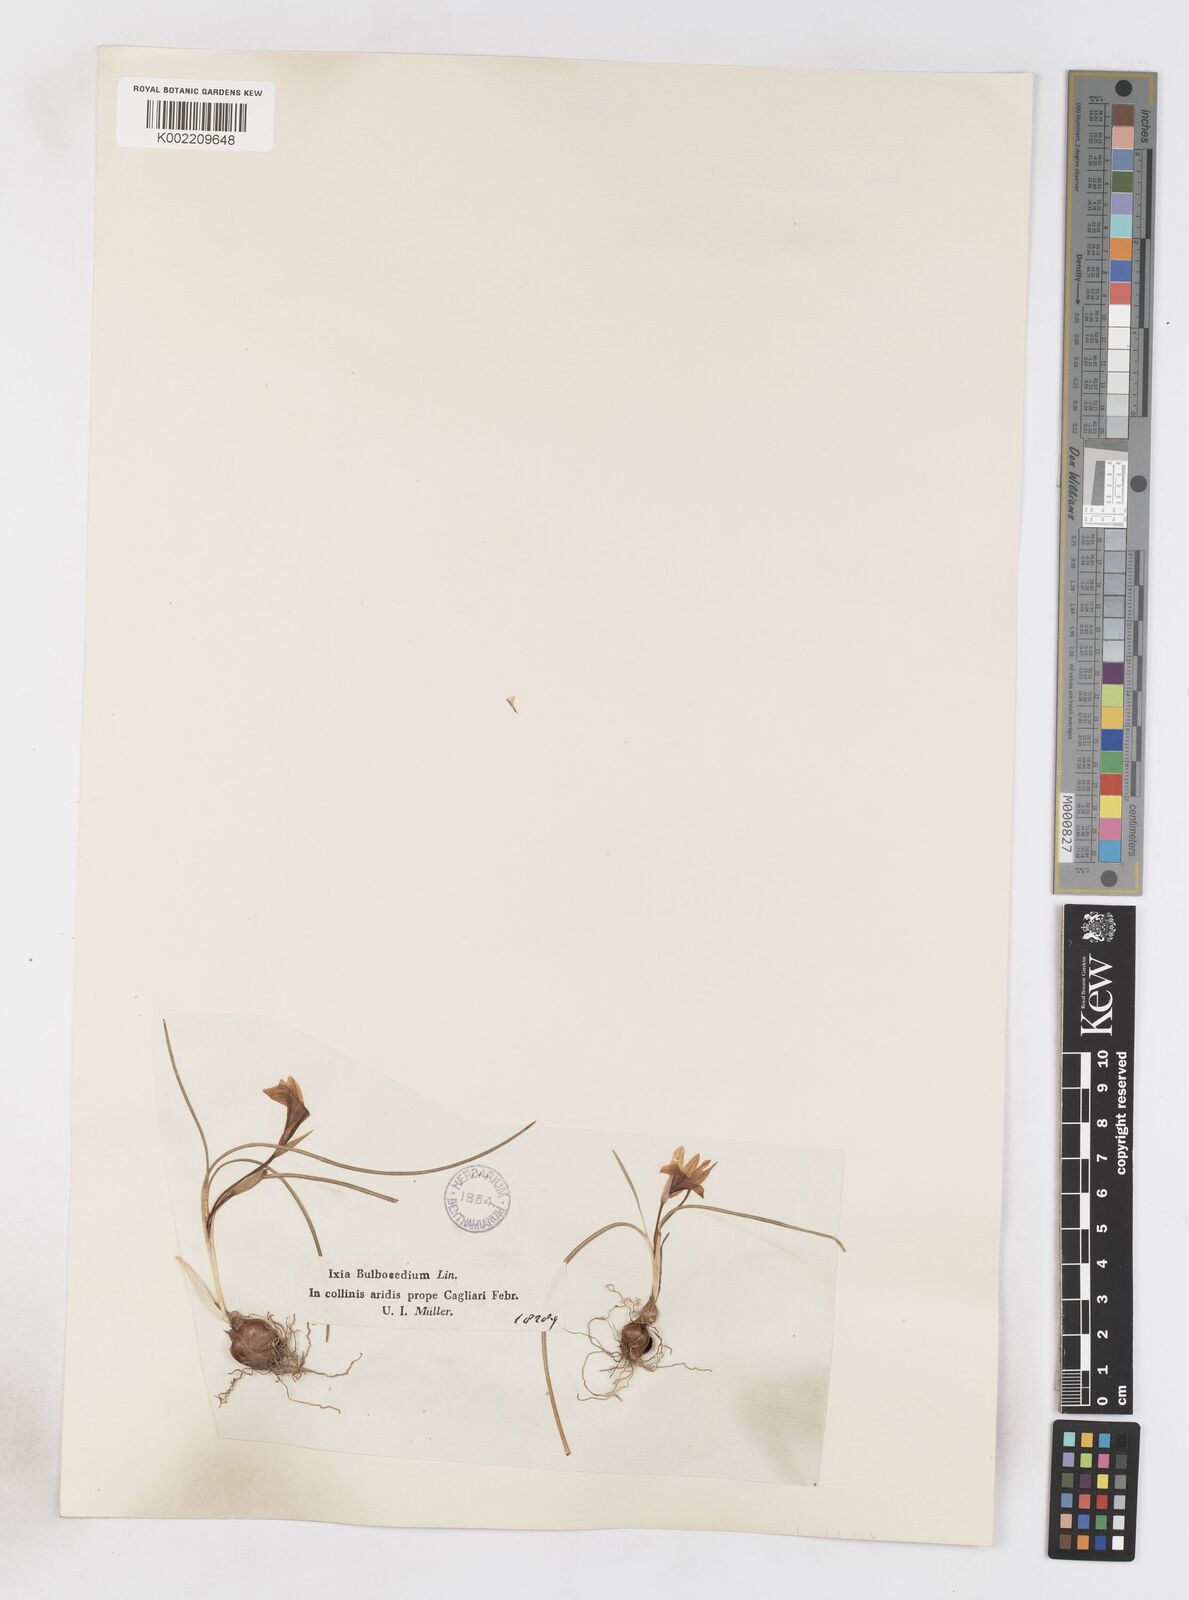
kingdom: Plantae
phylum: Tracheophyta
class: Liliopsida
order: Asparagales
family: Iridaceae
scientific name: Iridaceae
